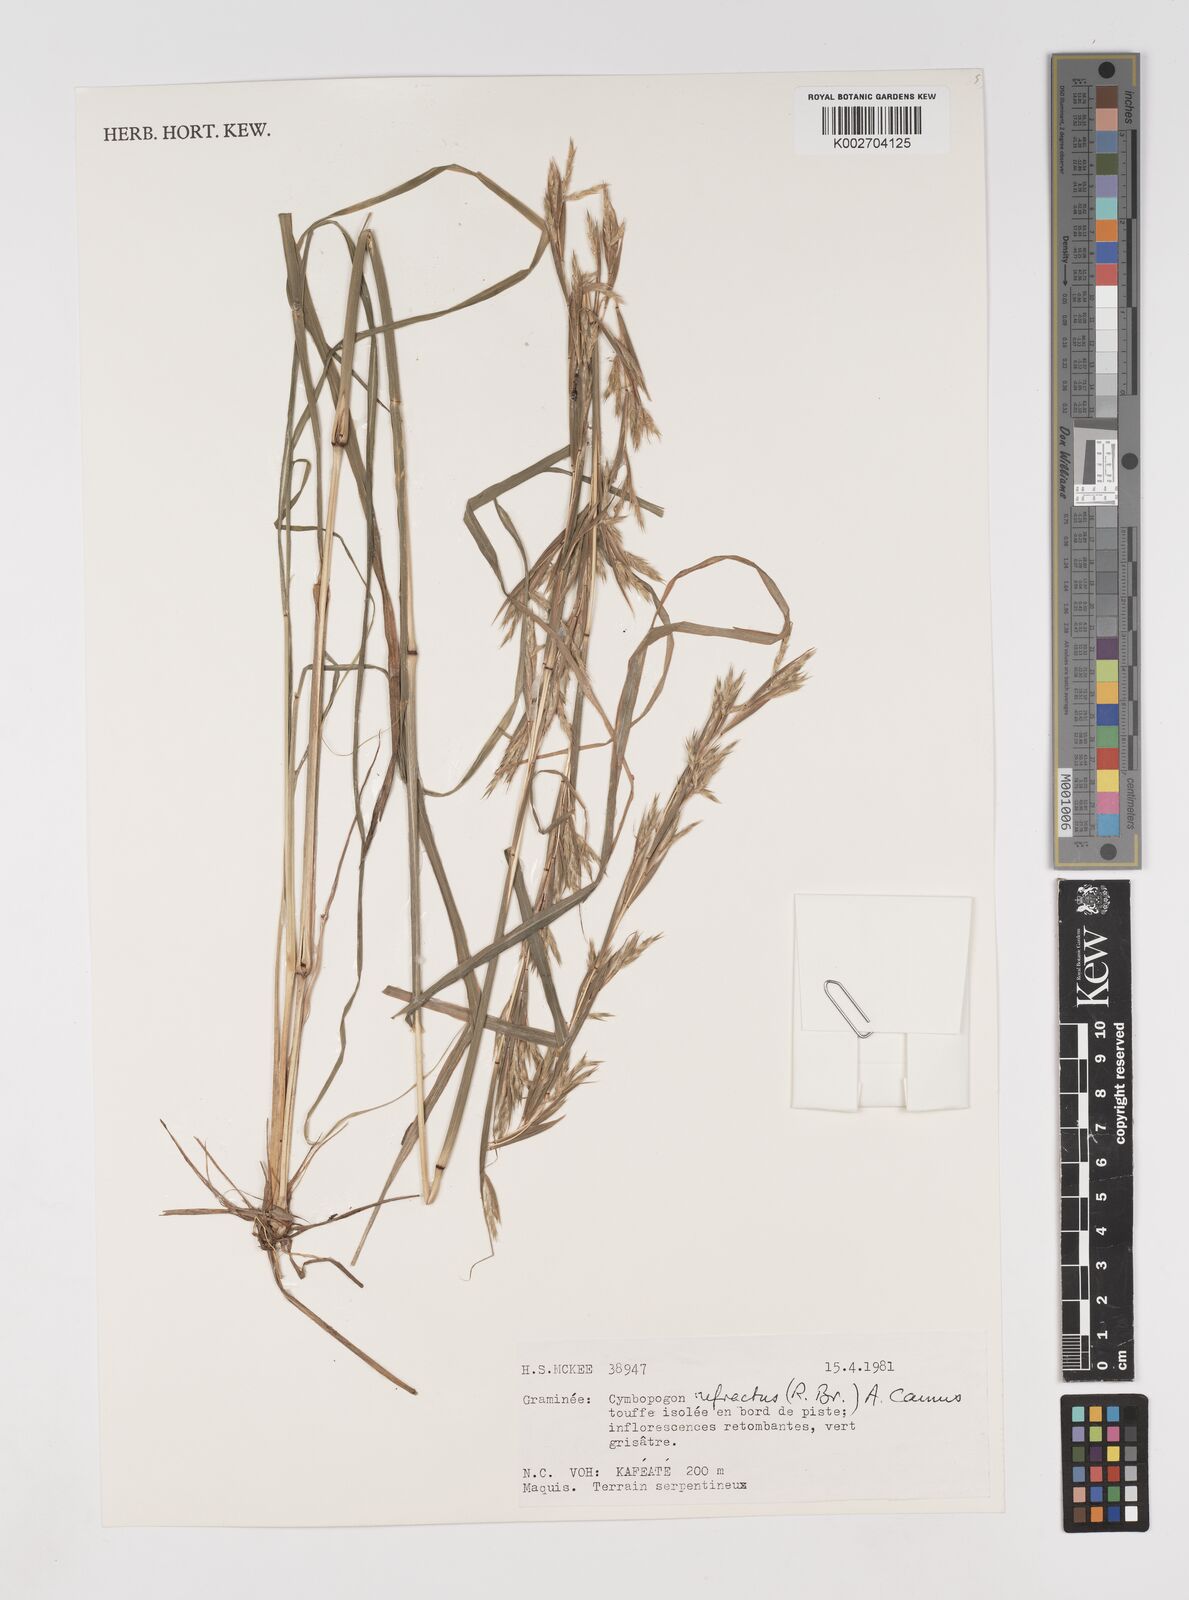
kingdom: Plantae
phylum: Tracheophyta
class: Liliopsida
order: Poales
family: Poaceae
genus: Cymbopogon
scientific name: Cymbopogon refractus
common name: Barbwire grass
